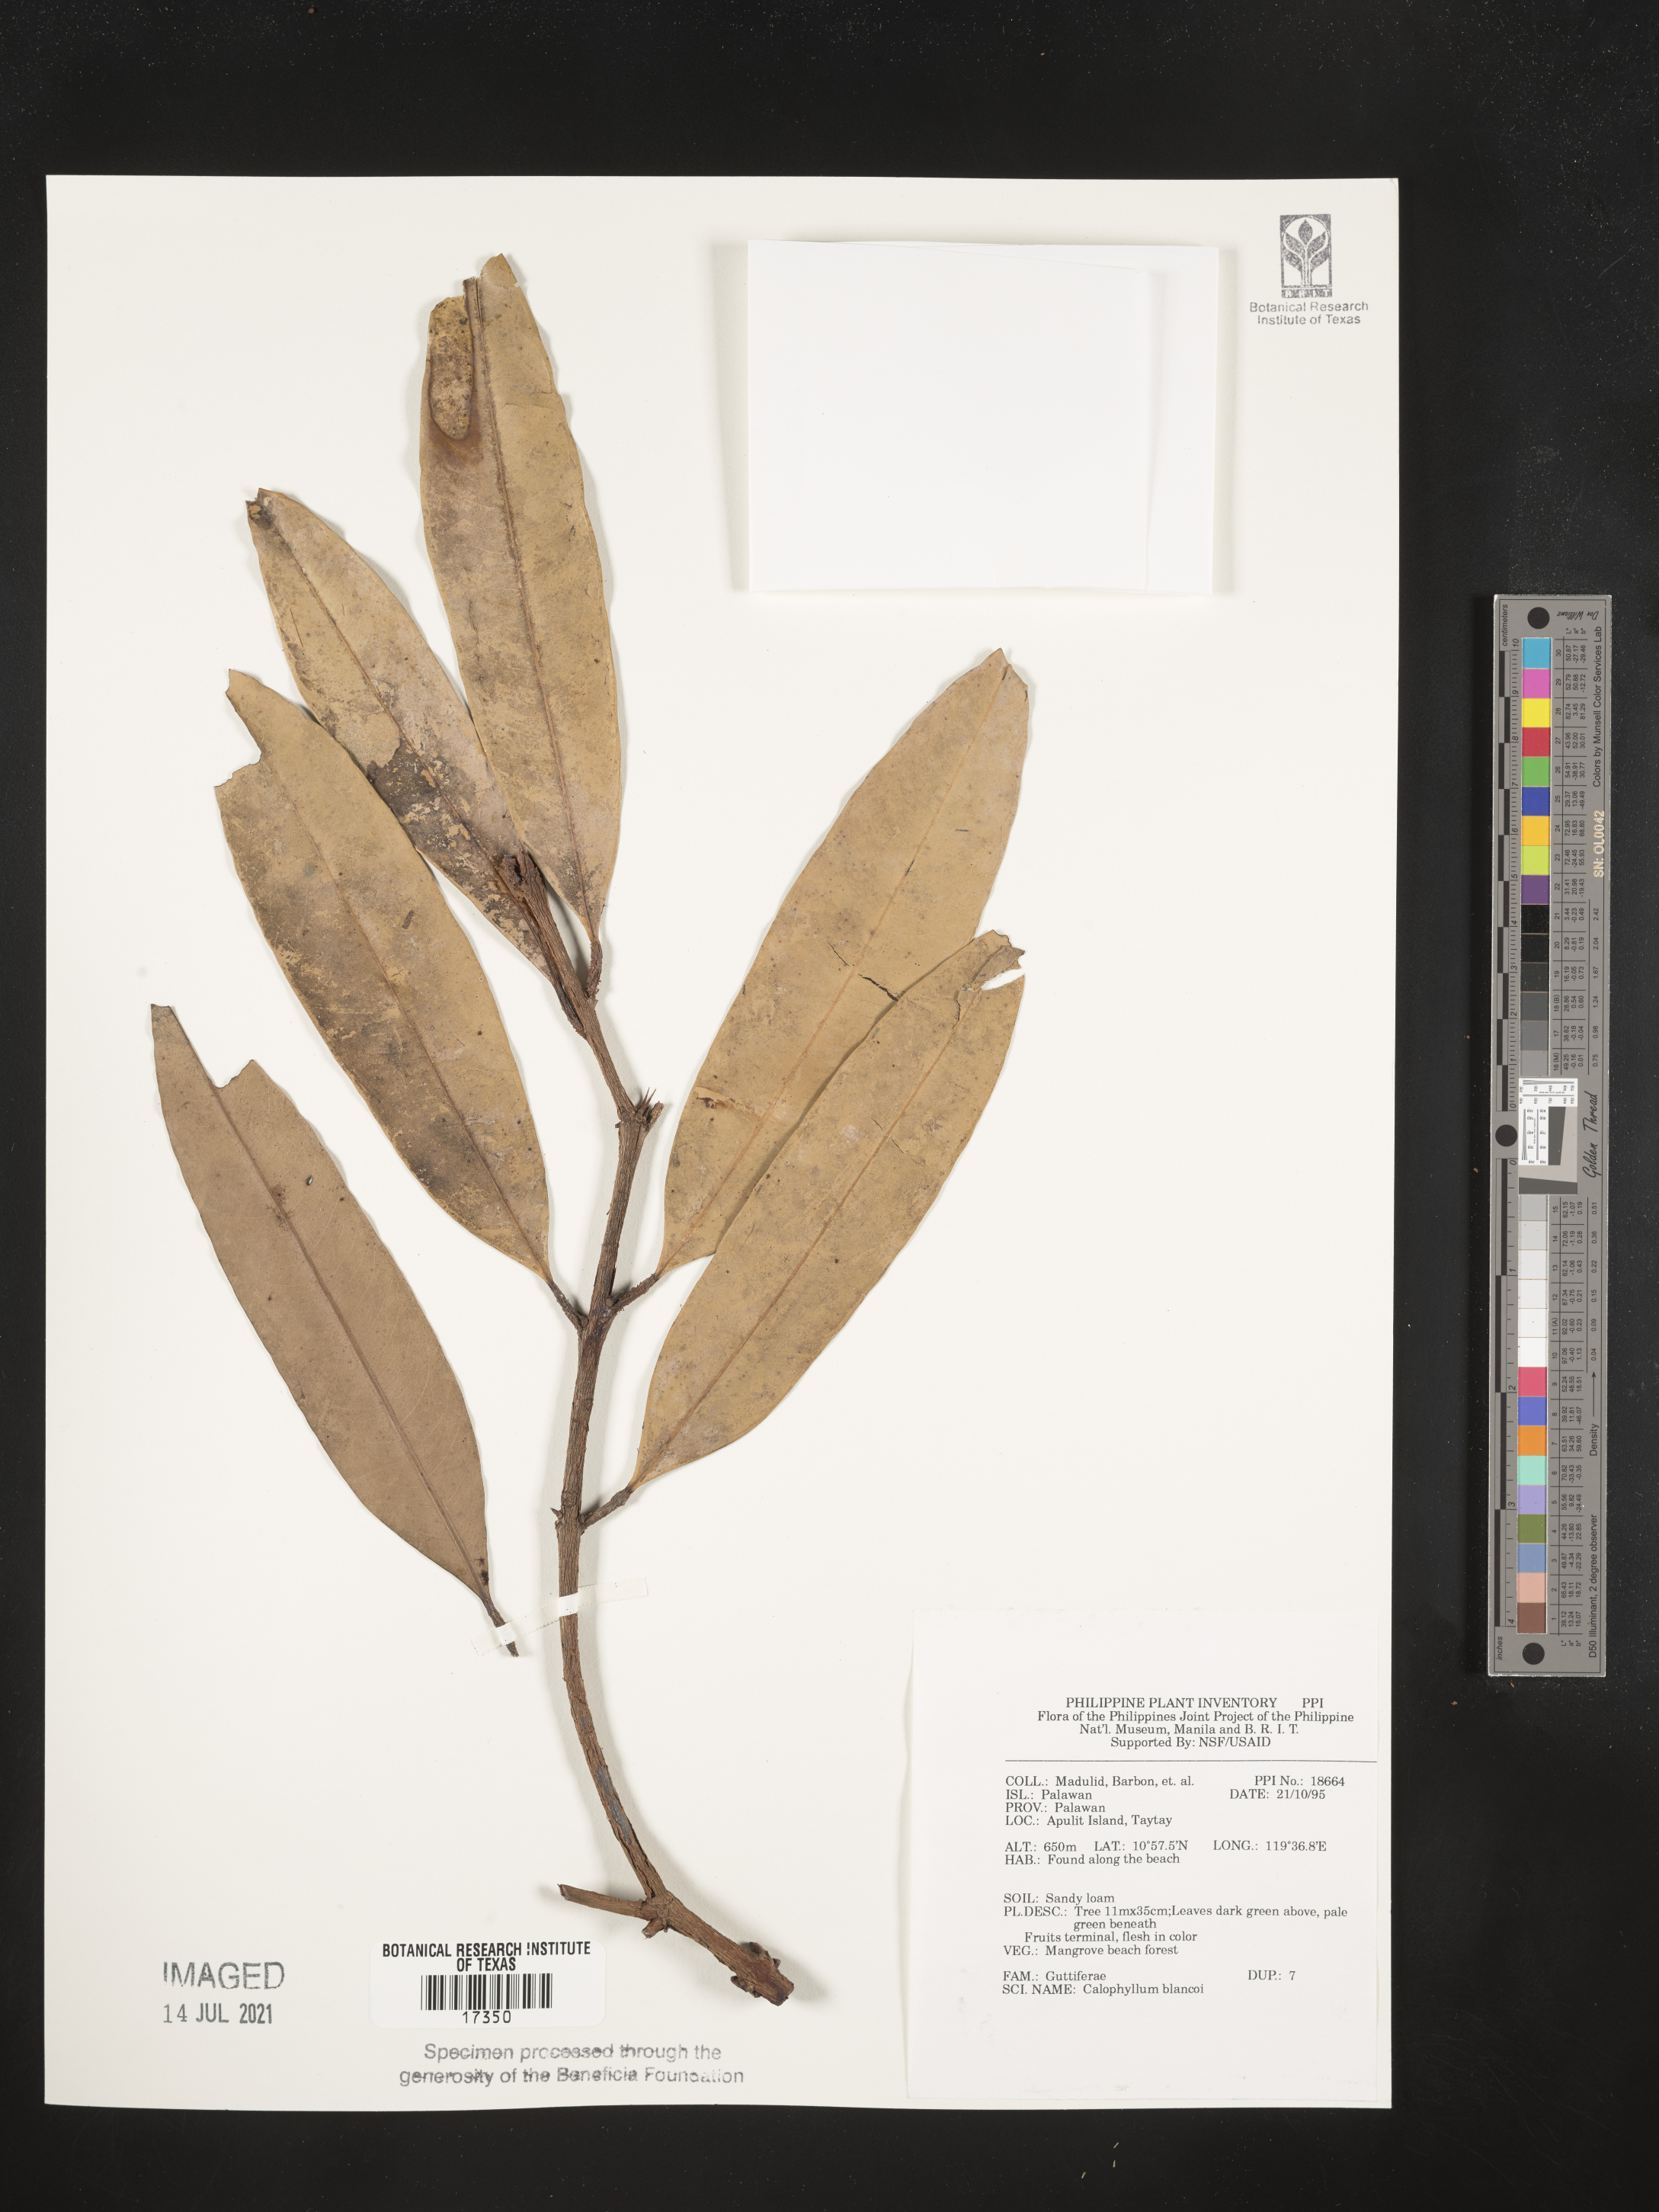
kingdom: Plantae
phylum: Tracheophyta
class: Magnoliopsida
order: Malpighiales
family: Calophyllaceae
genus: Calophyllum
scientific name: Calophyllum blancoi
